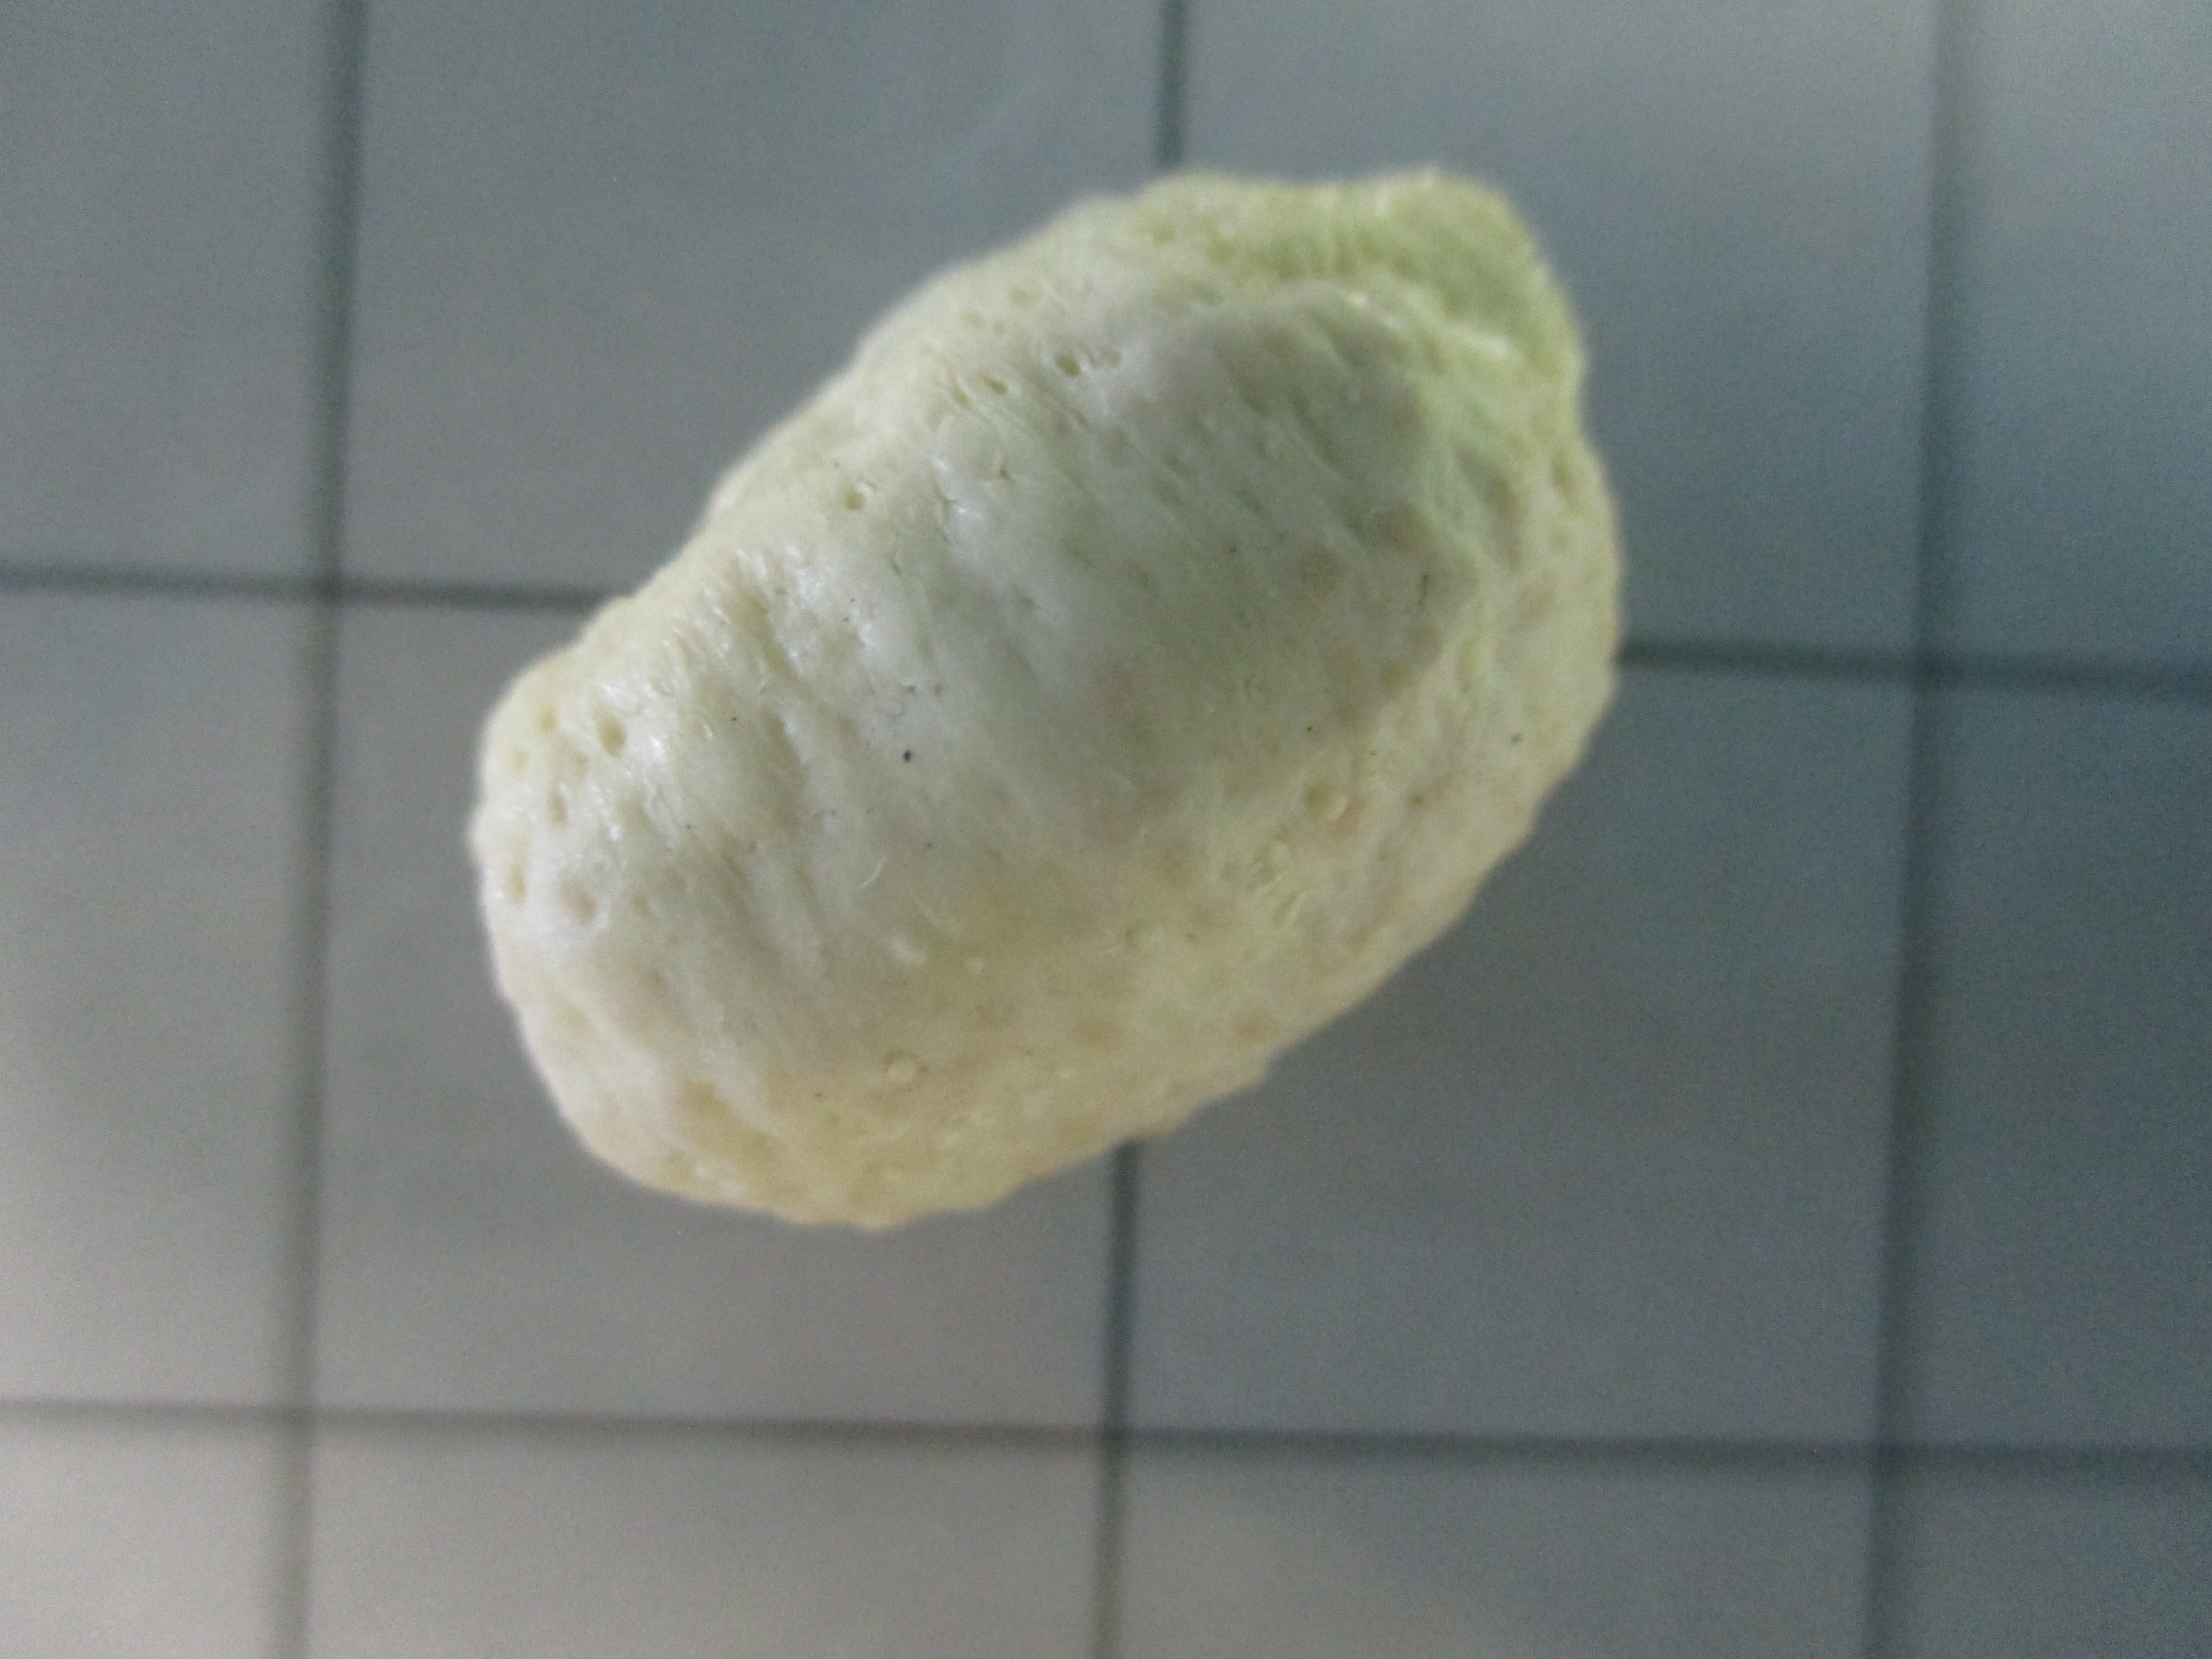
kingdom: Animalia
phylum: Echinodermata
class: Holothuroidea
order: Dendrochirotida
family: Cucumariidae
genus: Hemiocnus
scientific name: Hemiocnus insolens
